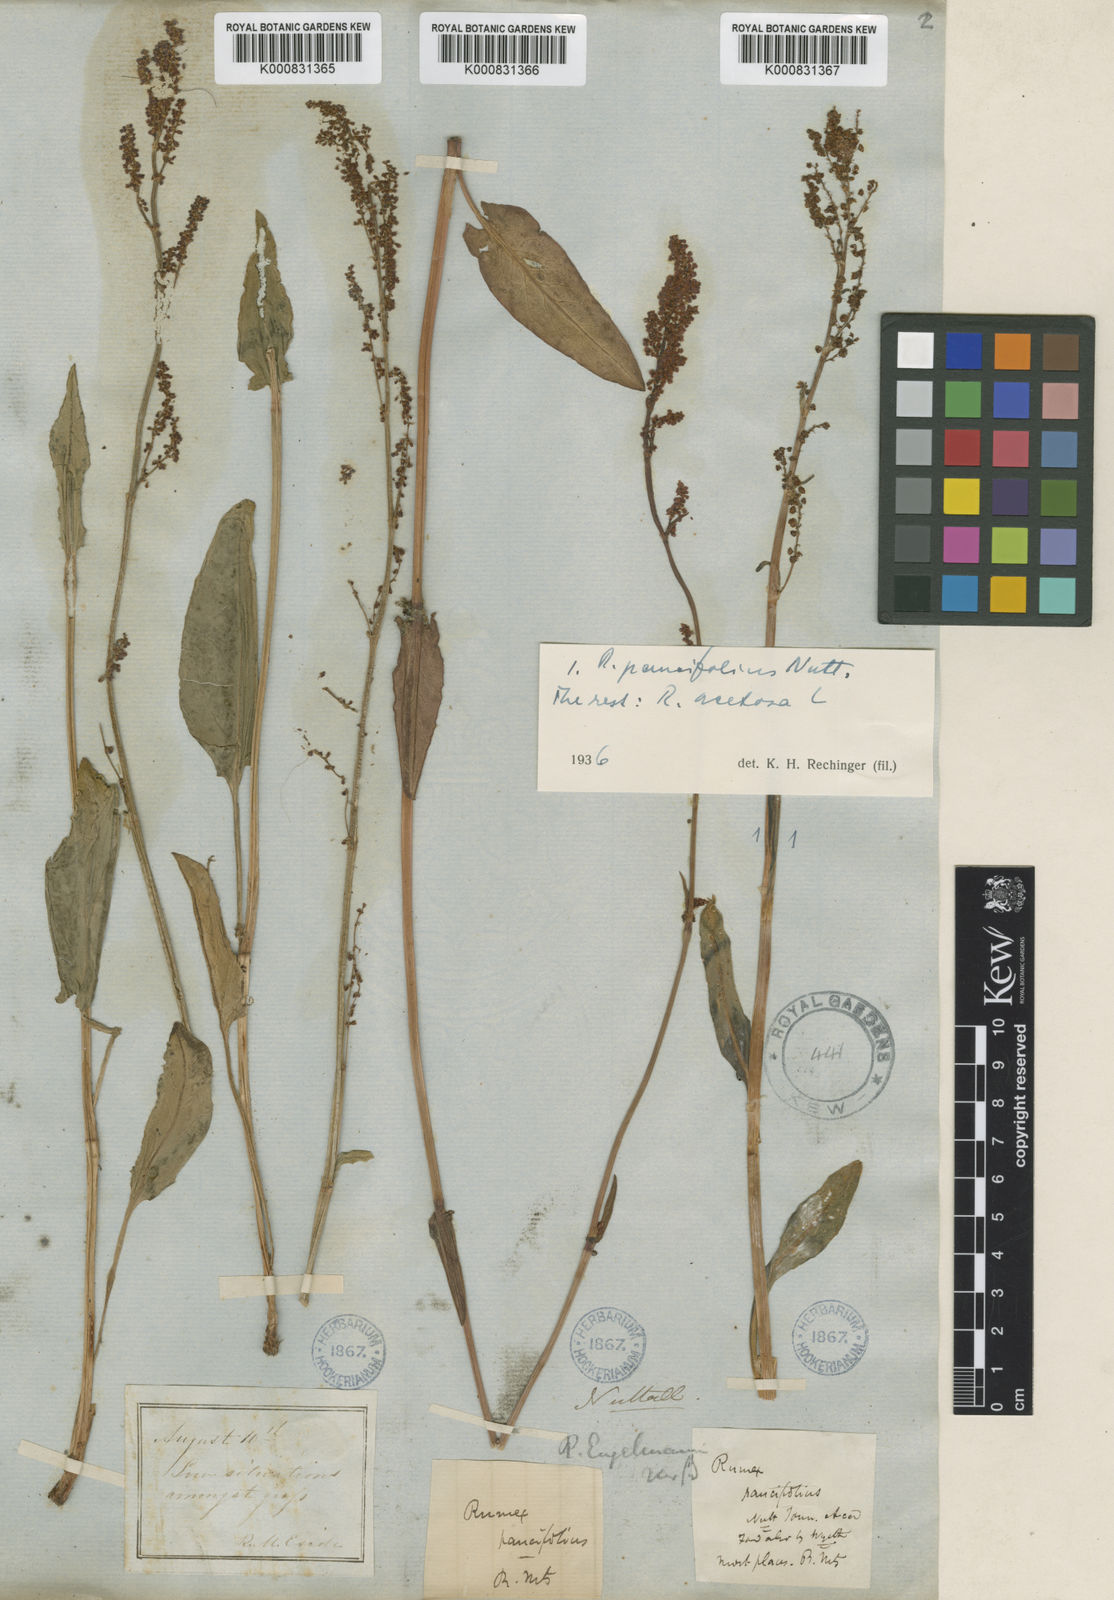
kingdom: Plantae
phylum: Tracheophyta
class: Magnoliopsida
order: Caryophyllales
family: Polygonaceae
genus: Rumex
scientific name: Rumex paucifolius
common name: Alpine sheep sorrel
